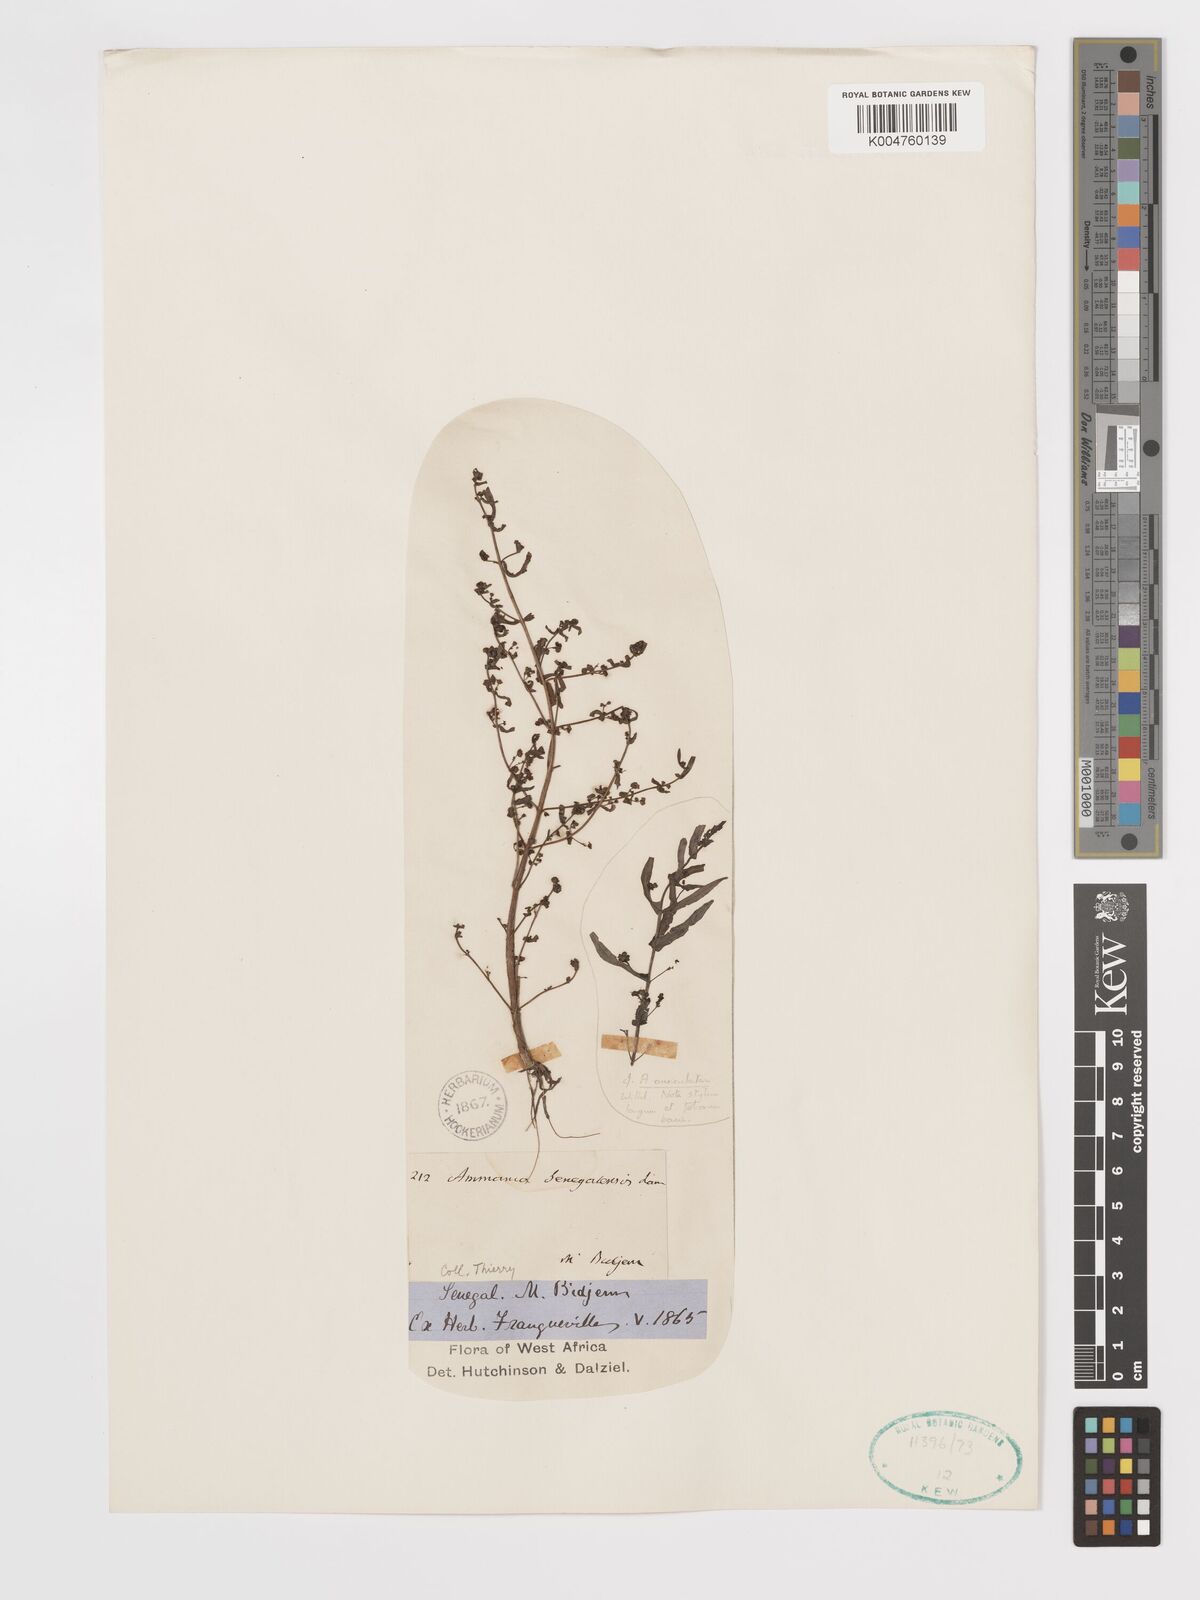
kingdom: Plantae
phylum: Tracheophyta
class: Magnoliopsida
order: Myrtales
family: Lythraceae
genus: Ammannia
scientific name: Ammannia senegalensis
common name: Red ammannia
